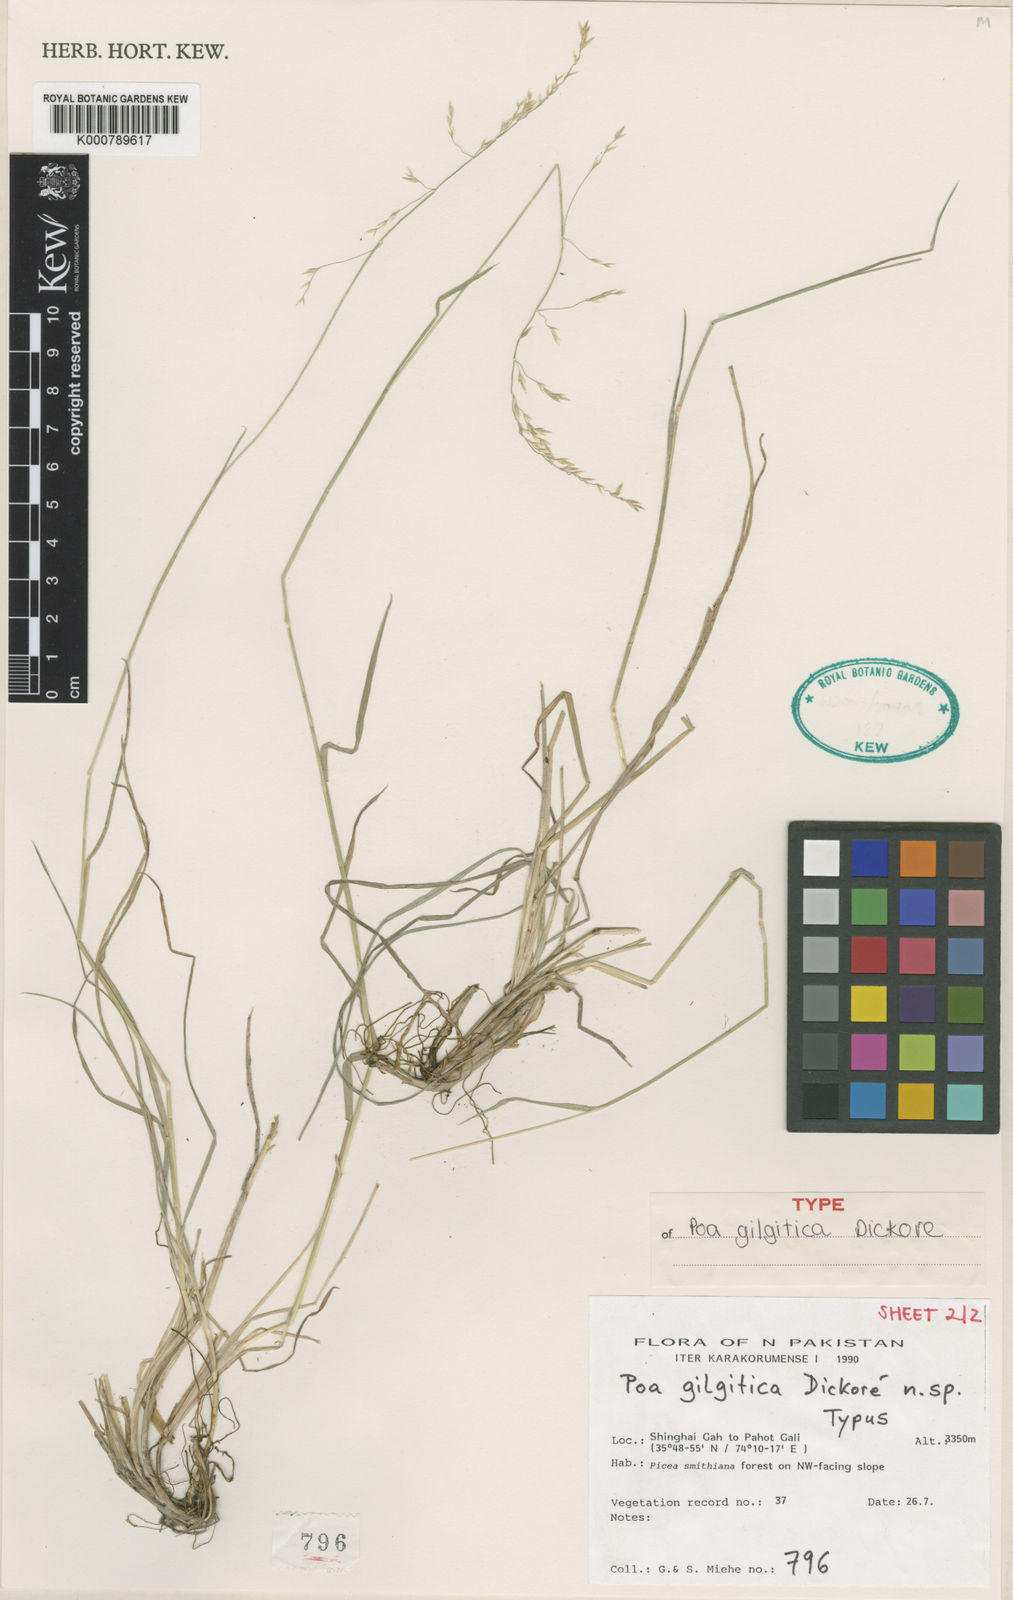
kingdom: Plantae
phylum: Tracheophyta
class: Liliopsida
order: Poales
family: Poaceae
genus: Poa
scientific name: Poa
